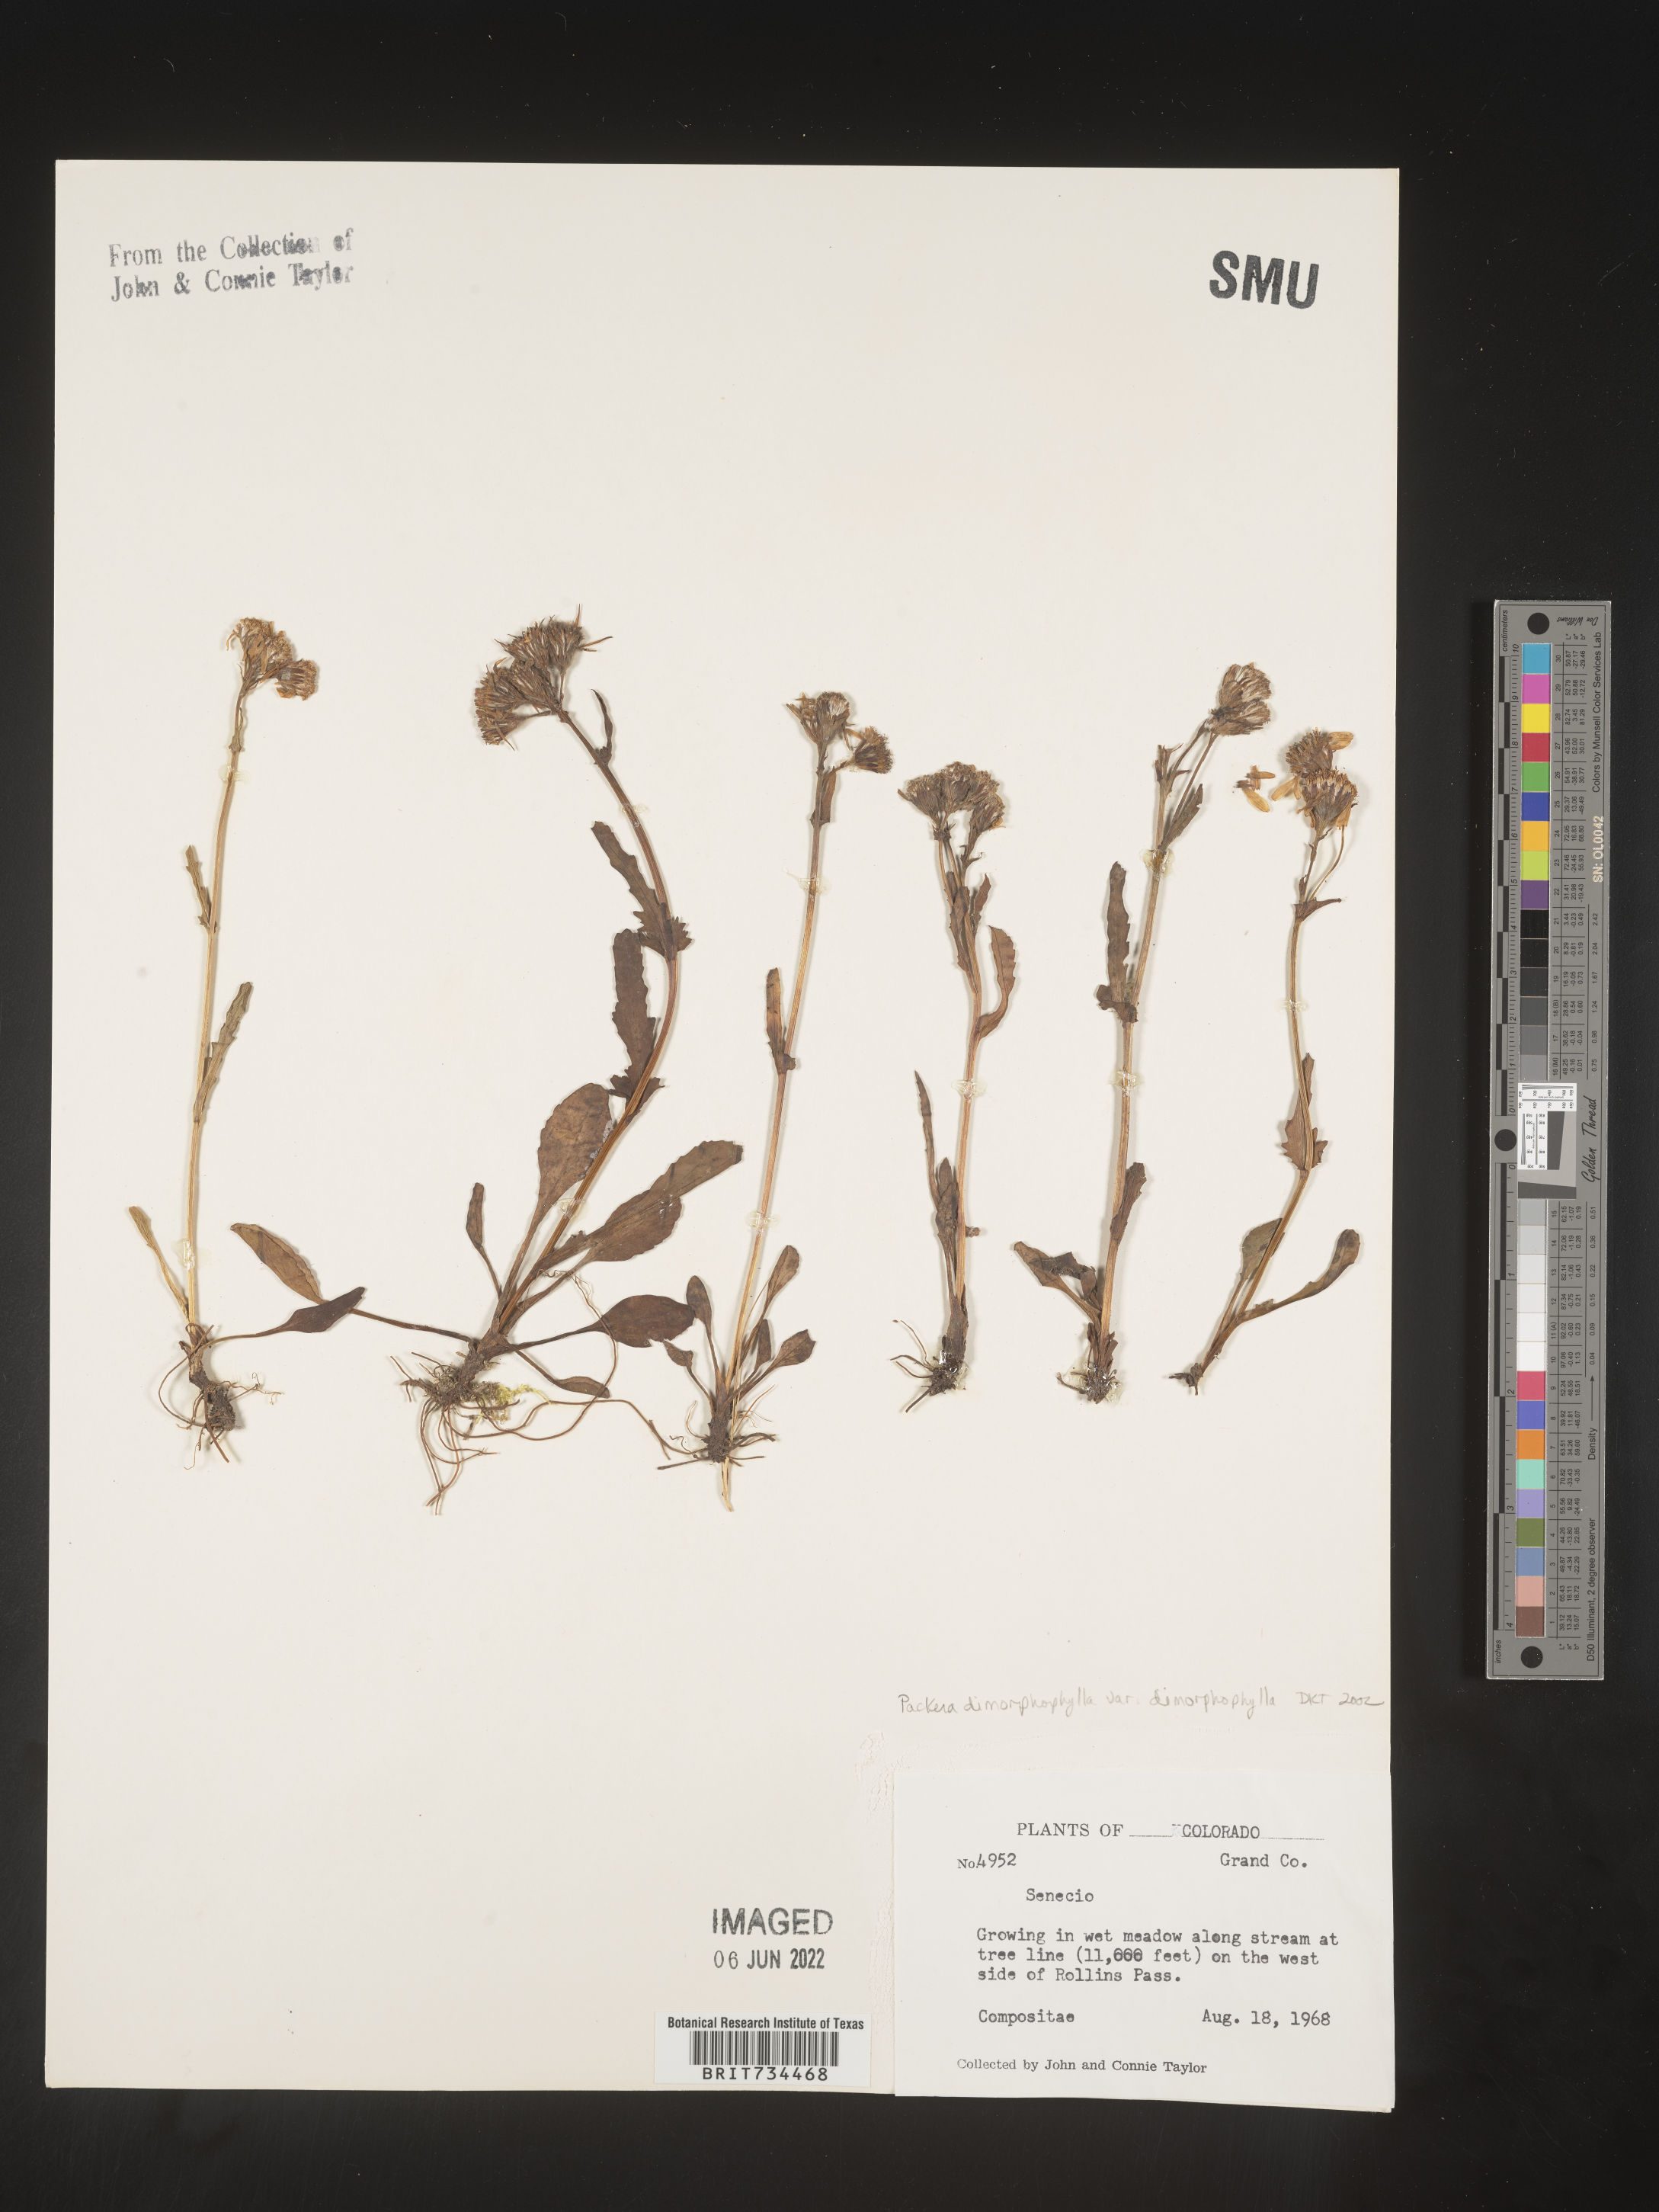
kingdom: Plantae
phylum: Tracheophyta
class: Magnoliopsida
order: Asterales
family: Asteraceae
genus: Packera
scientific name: Packera dimorphophylla
